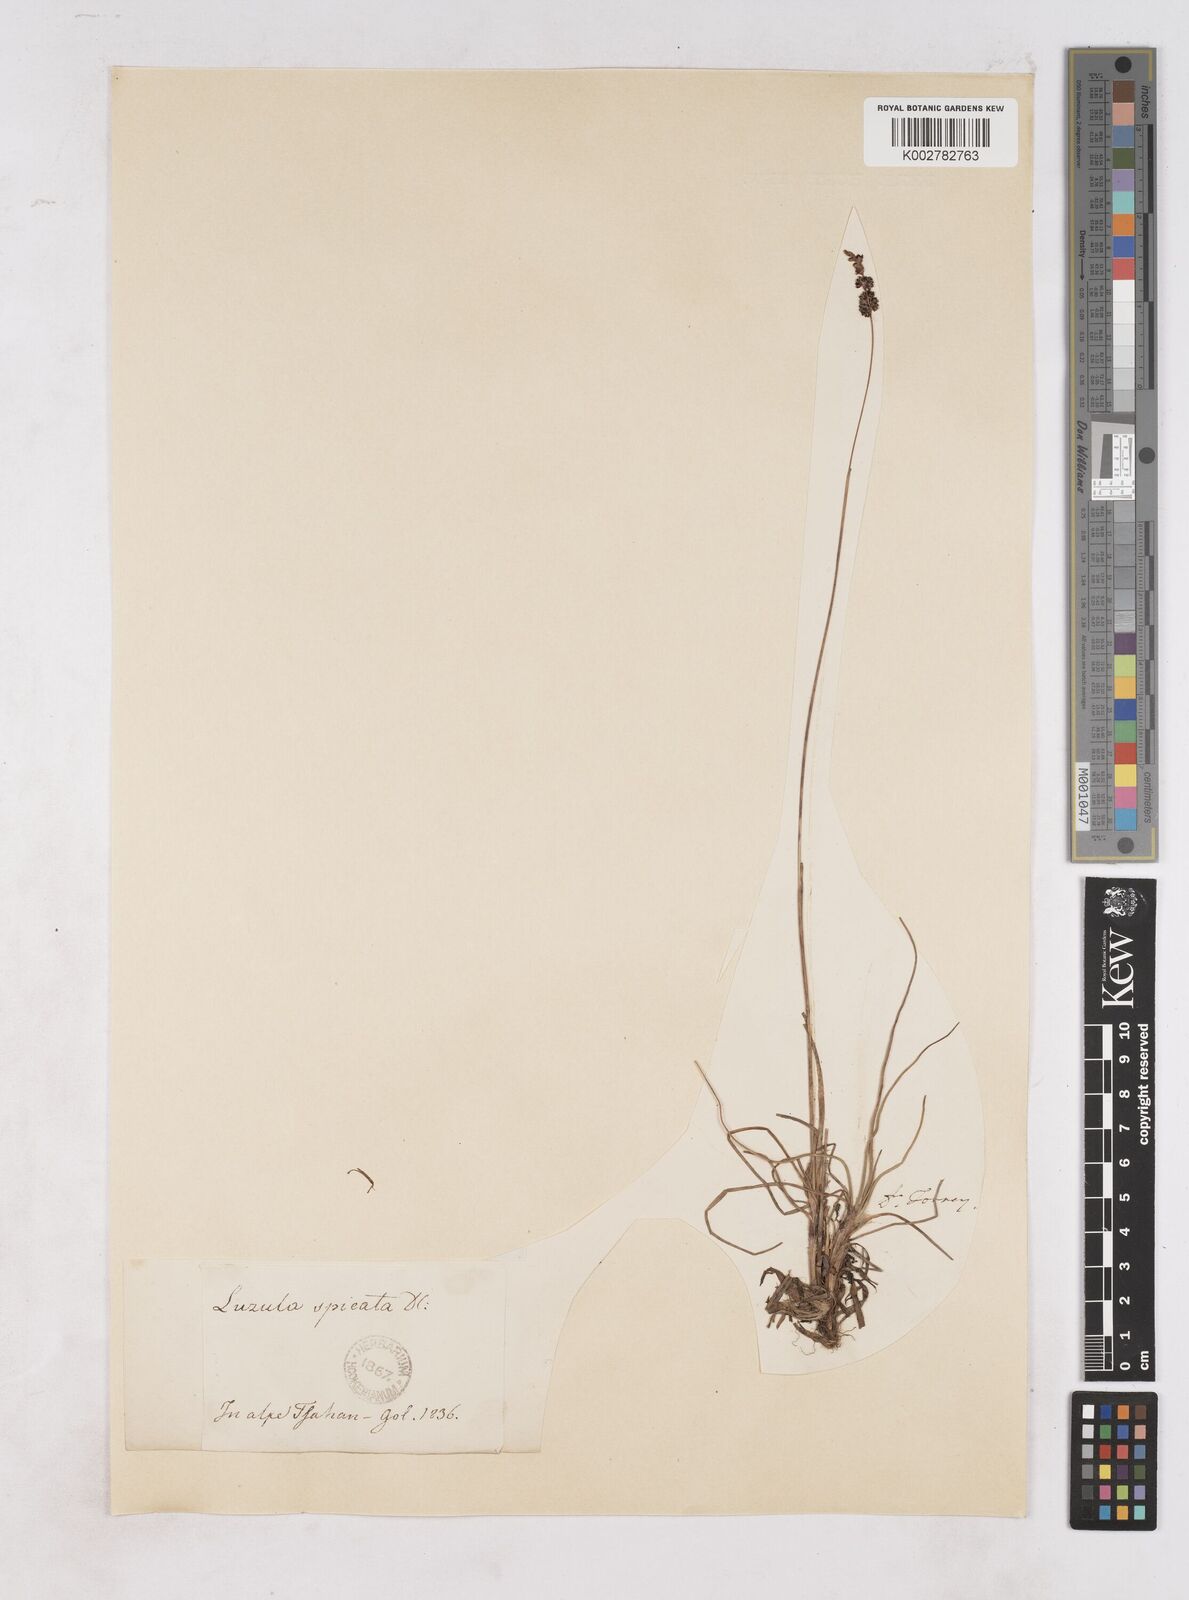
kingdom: Plantae
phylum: Tracheophyta
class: Liliopsida
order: Poales
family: Juncaceae
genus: Luzula
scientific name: Luzula spicata
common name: Spiked wood-rush
